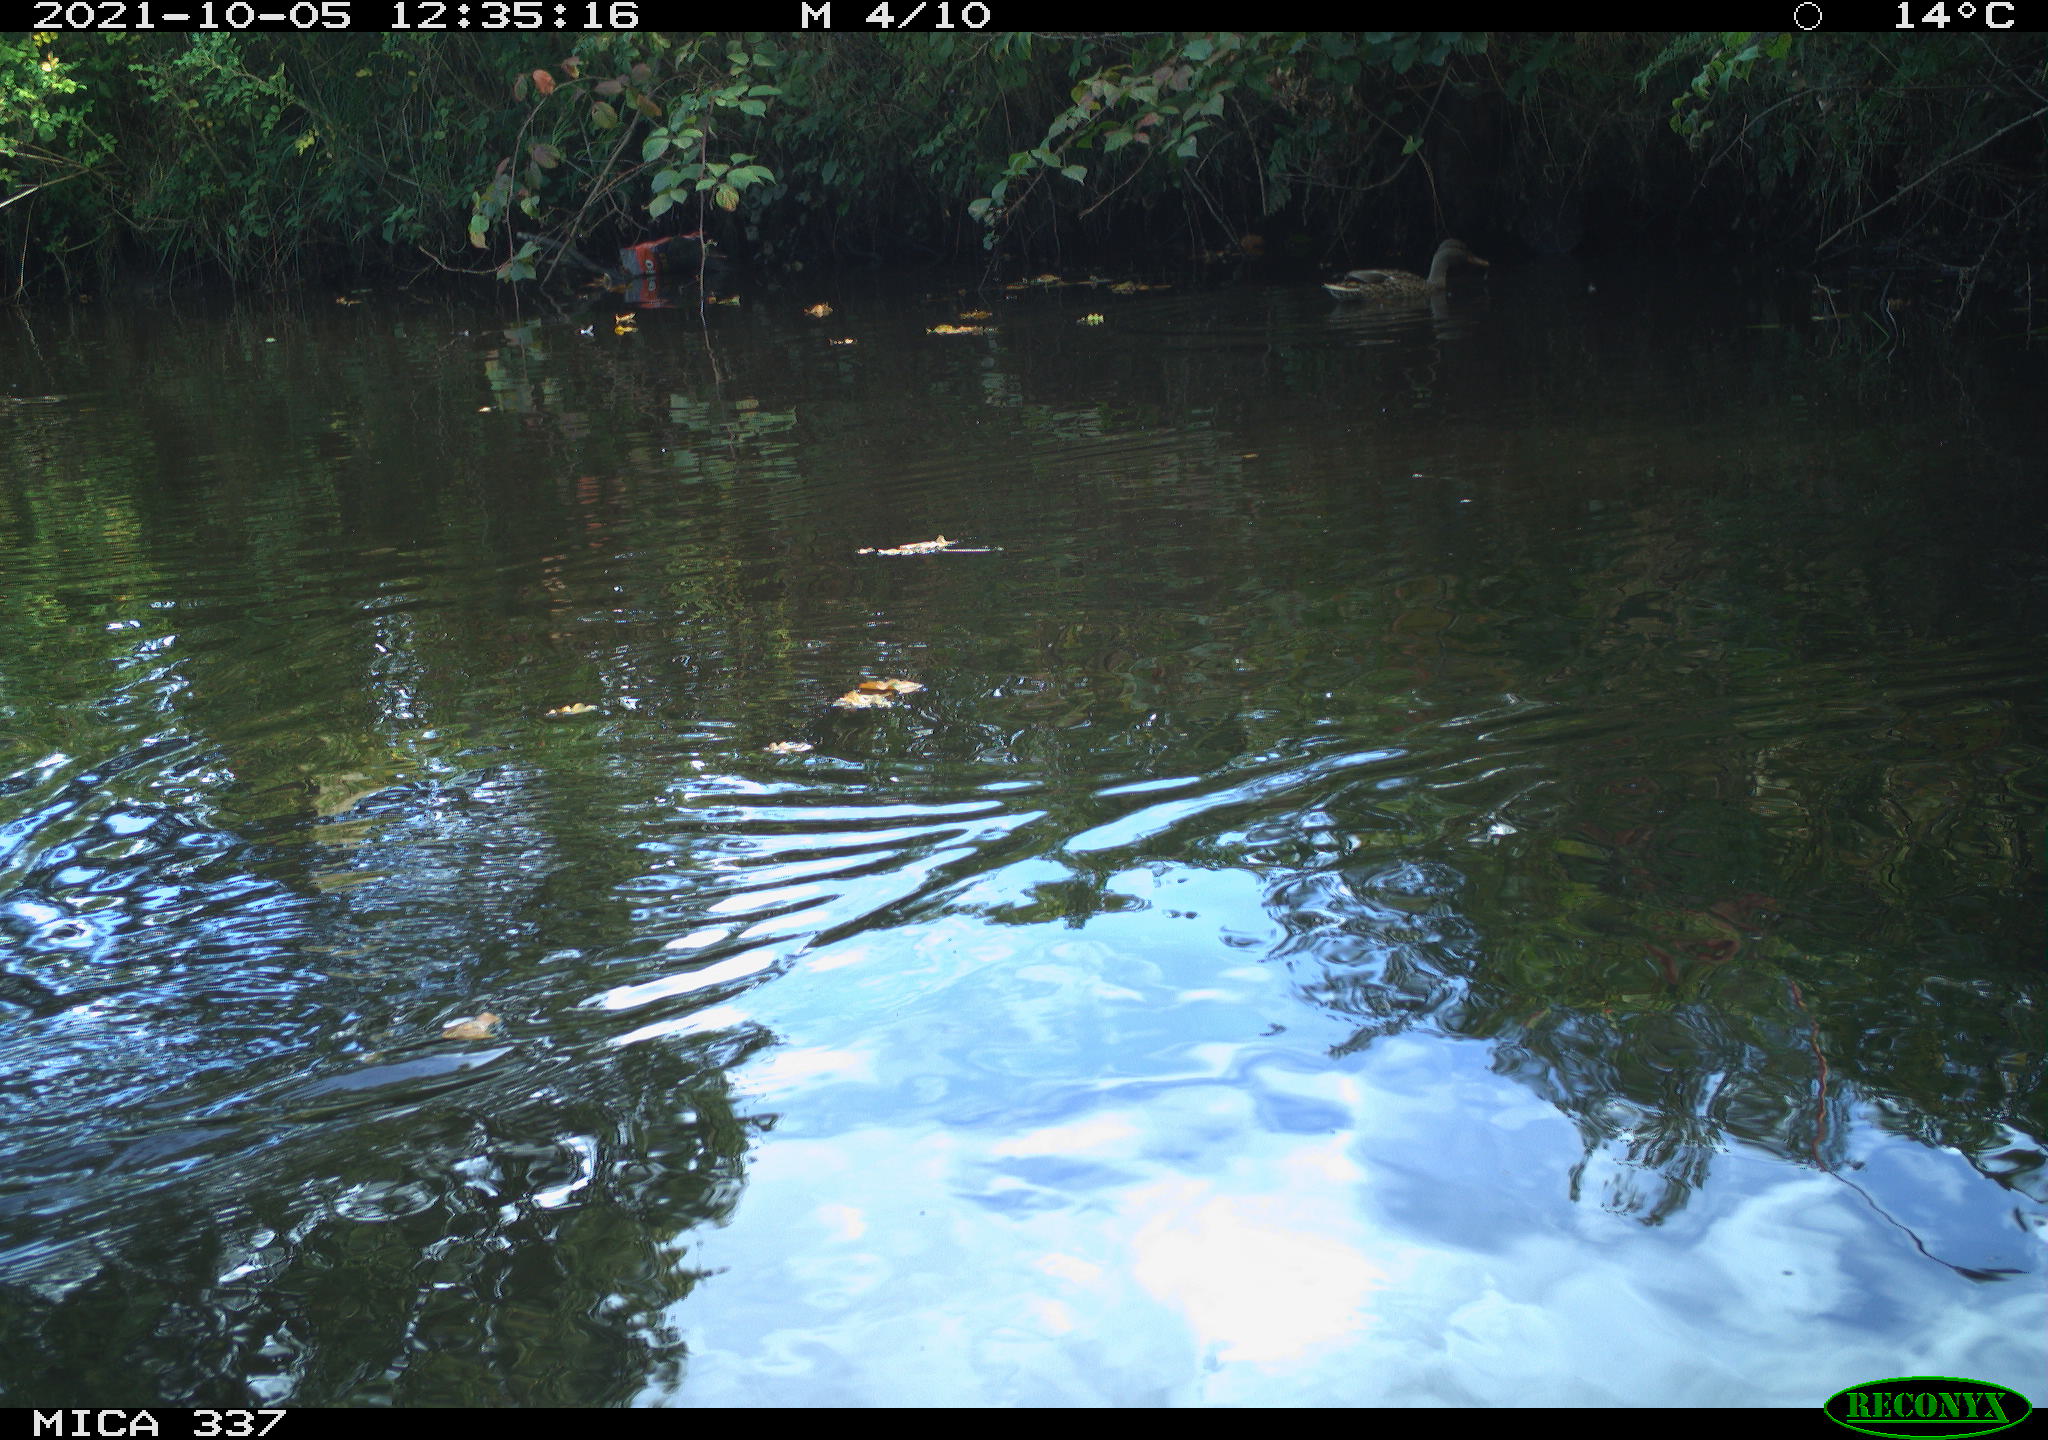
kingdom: Animalia
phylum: Chordata
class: Aves
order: Gruiformes
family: Rallidae
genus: Gallinula
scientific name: Gallinula chloropus
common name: Common moorhen
